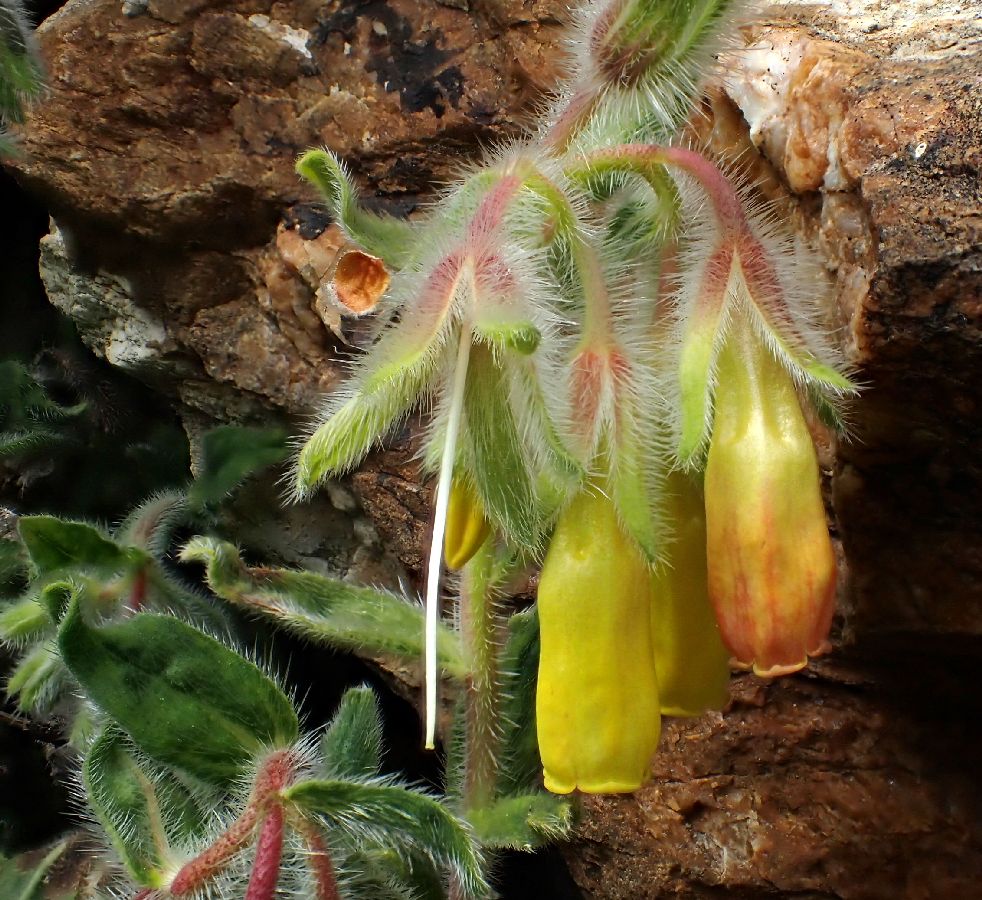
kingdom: Plantae
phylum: Tracheophyta
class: Magnoliopsida
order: Boraginales
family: Boraginaceae
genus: Onosma
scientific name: Onosma graeca
